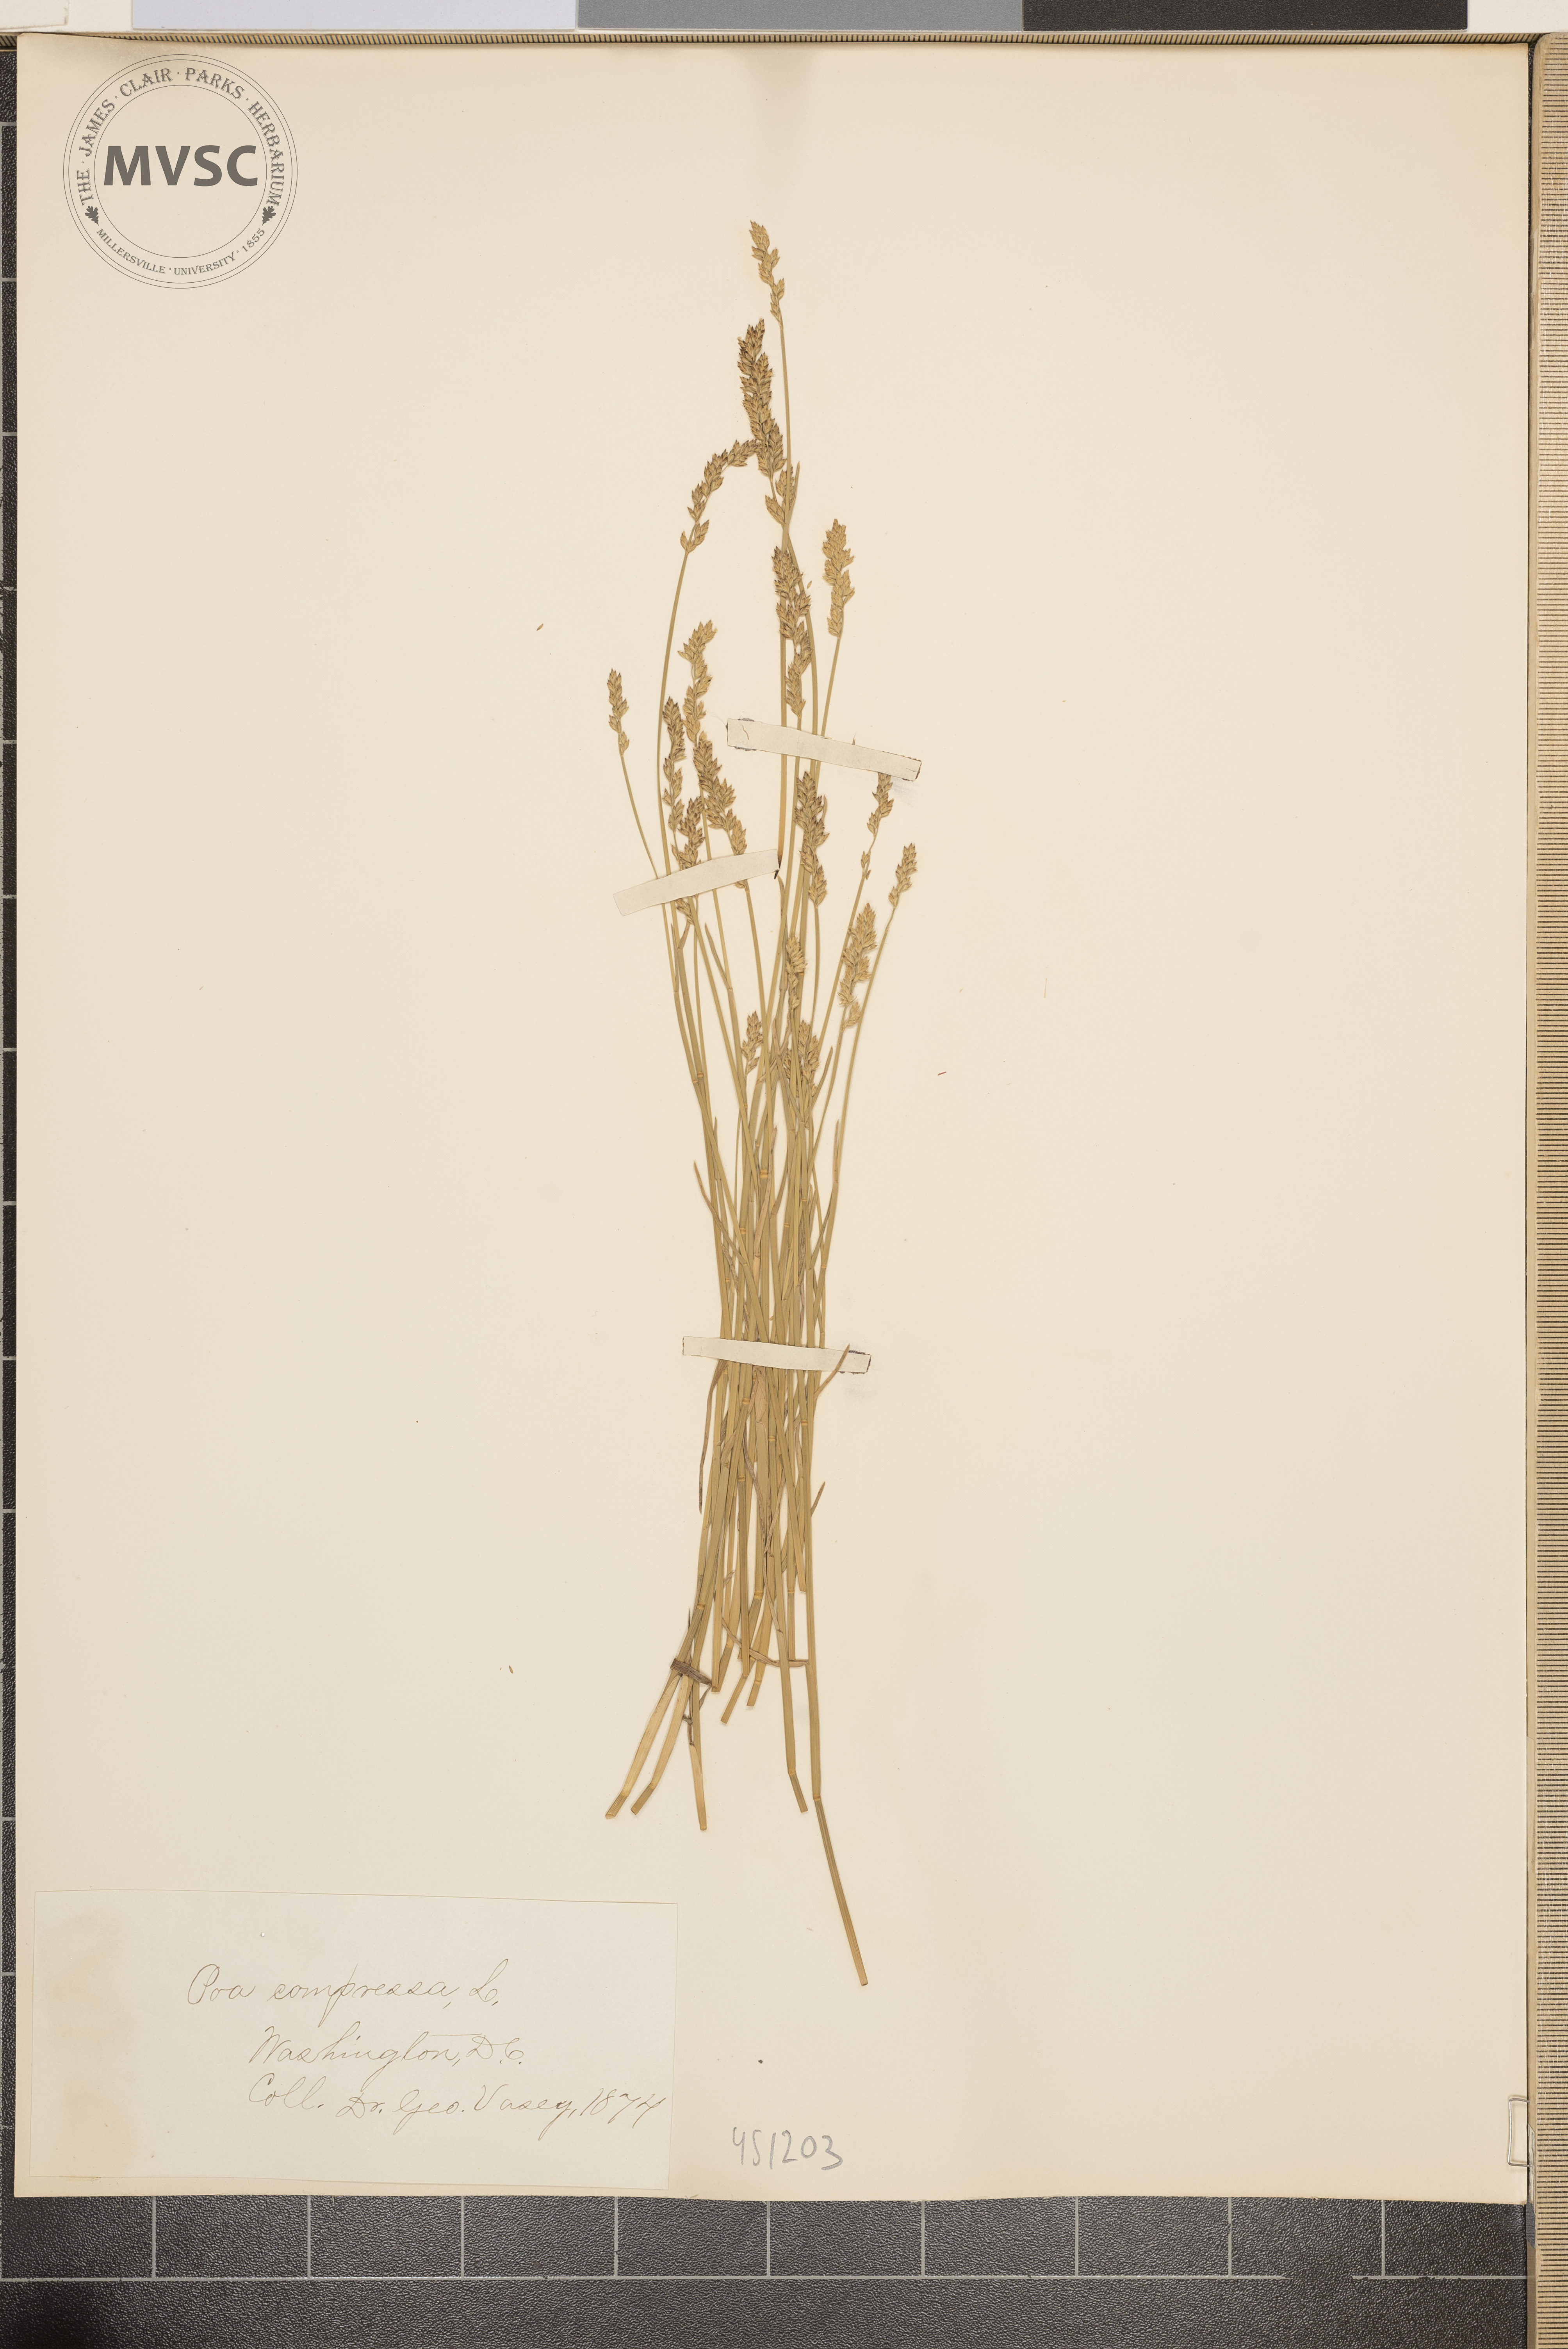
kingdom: Plantae
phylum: Tracheophyta
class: Liliopsida
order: Poales
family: Poaceae
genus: Poa
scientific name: Poa compressa
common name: Canada bluegrass
